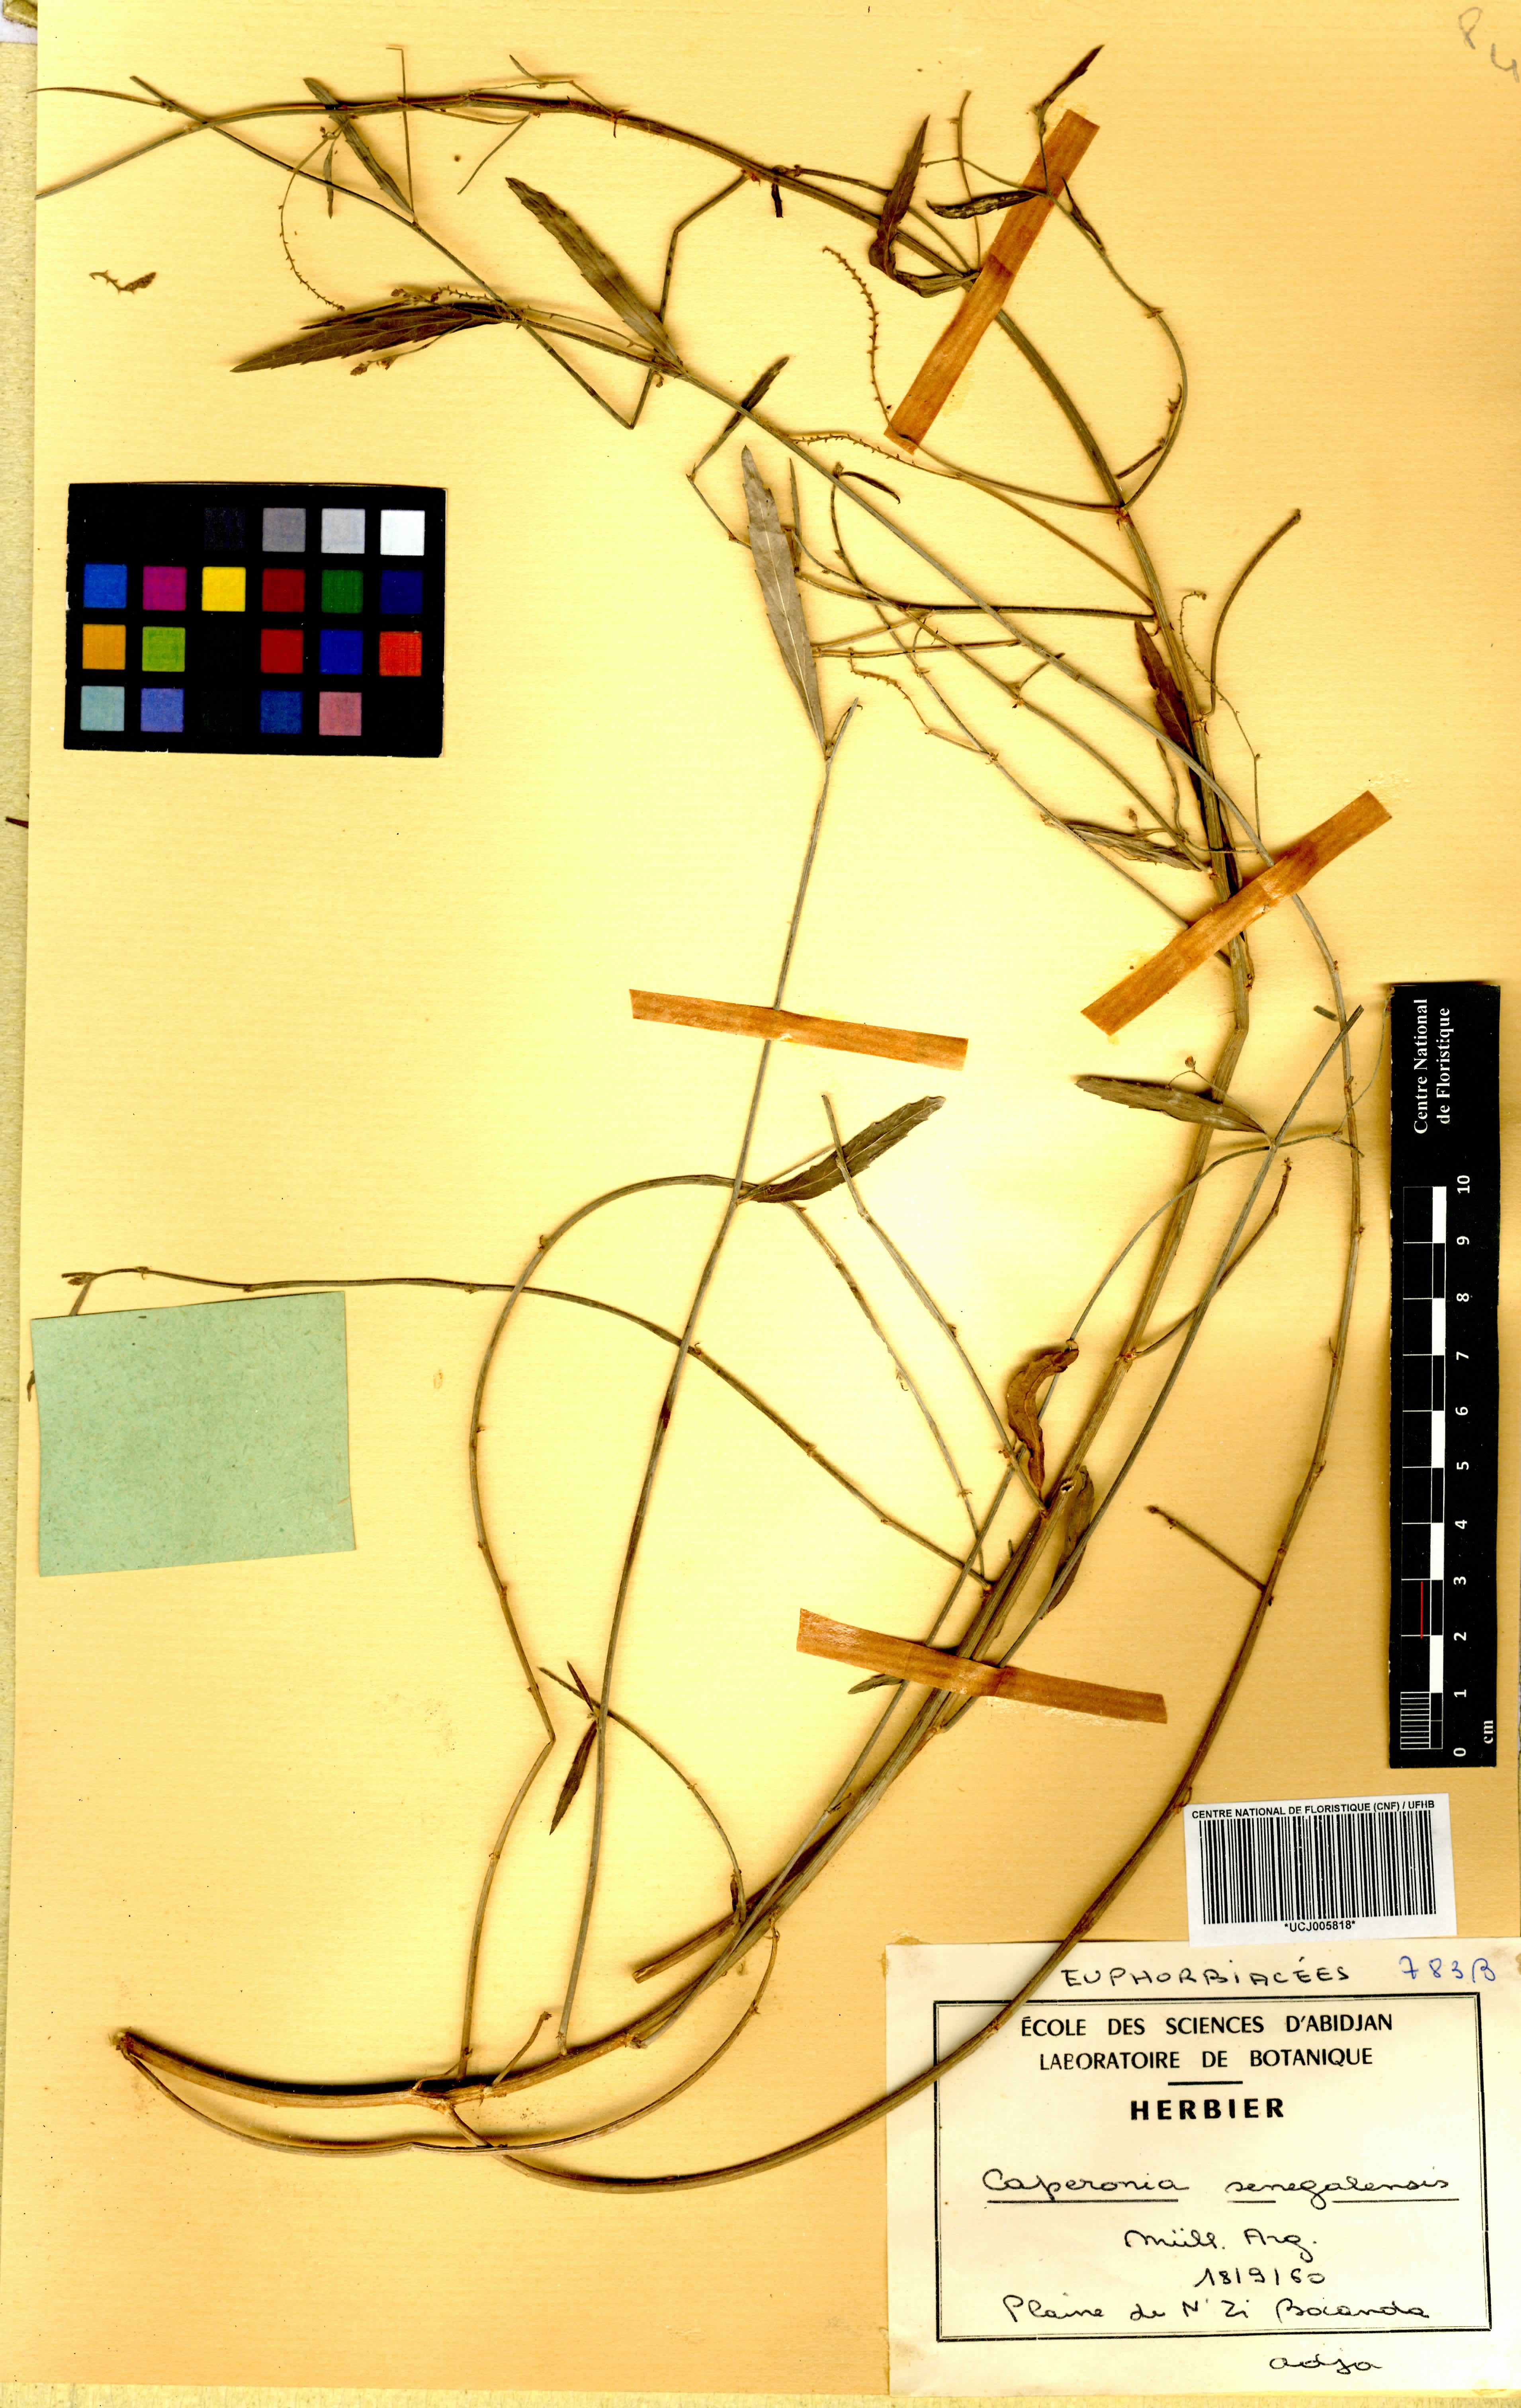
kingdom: Plantae
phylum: Tracheophyta
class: Magnoliopsida
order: Malpighiales
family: Euphorbiaceae
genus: Caperonia
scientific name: Caperonia serrata
